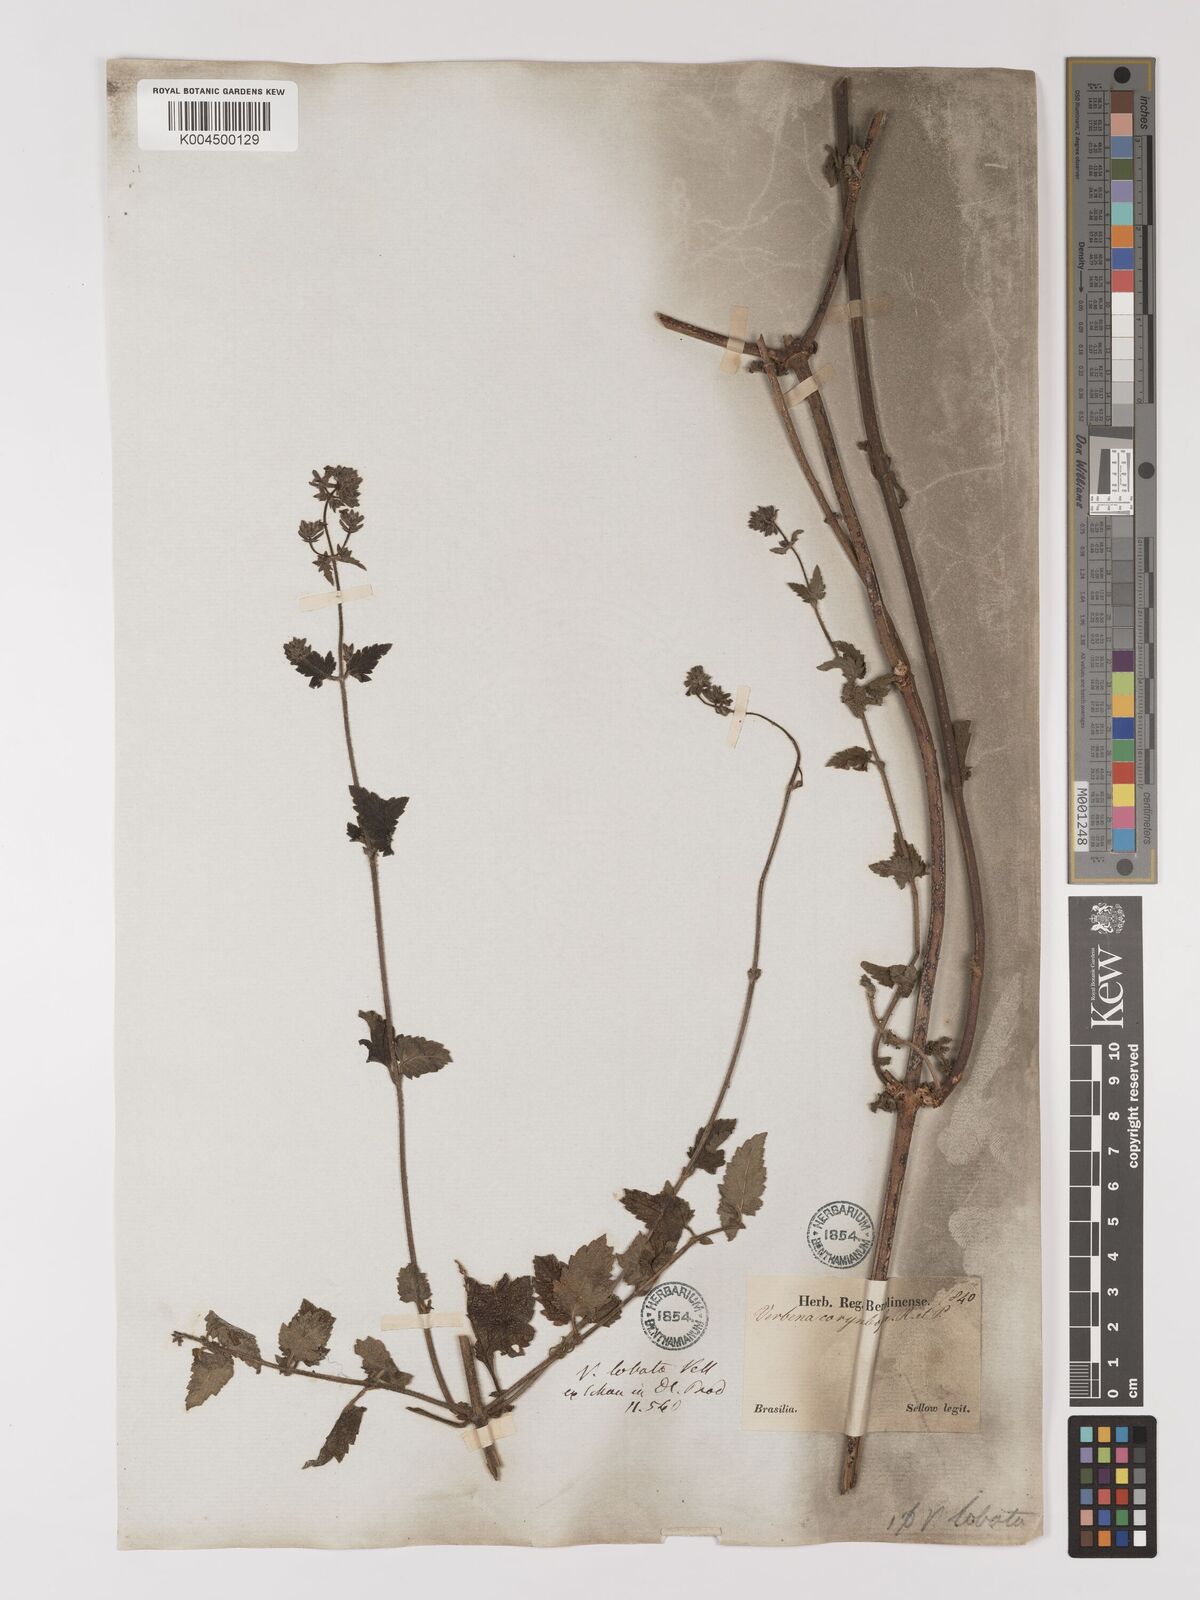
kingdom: Plantae
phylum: Tracheophyta
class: Magnoliopsida
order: Lamiales
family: Verbenaceae
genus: Verbena
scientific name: Verbena lobata
